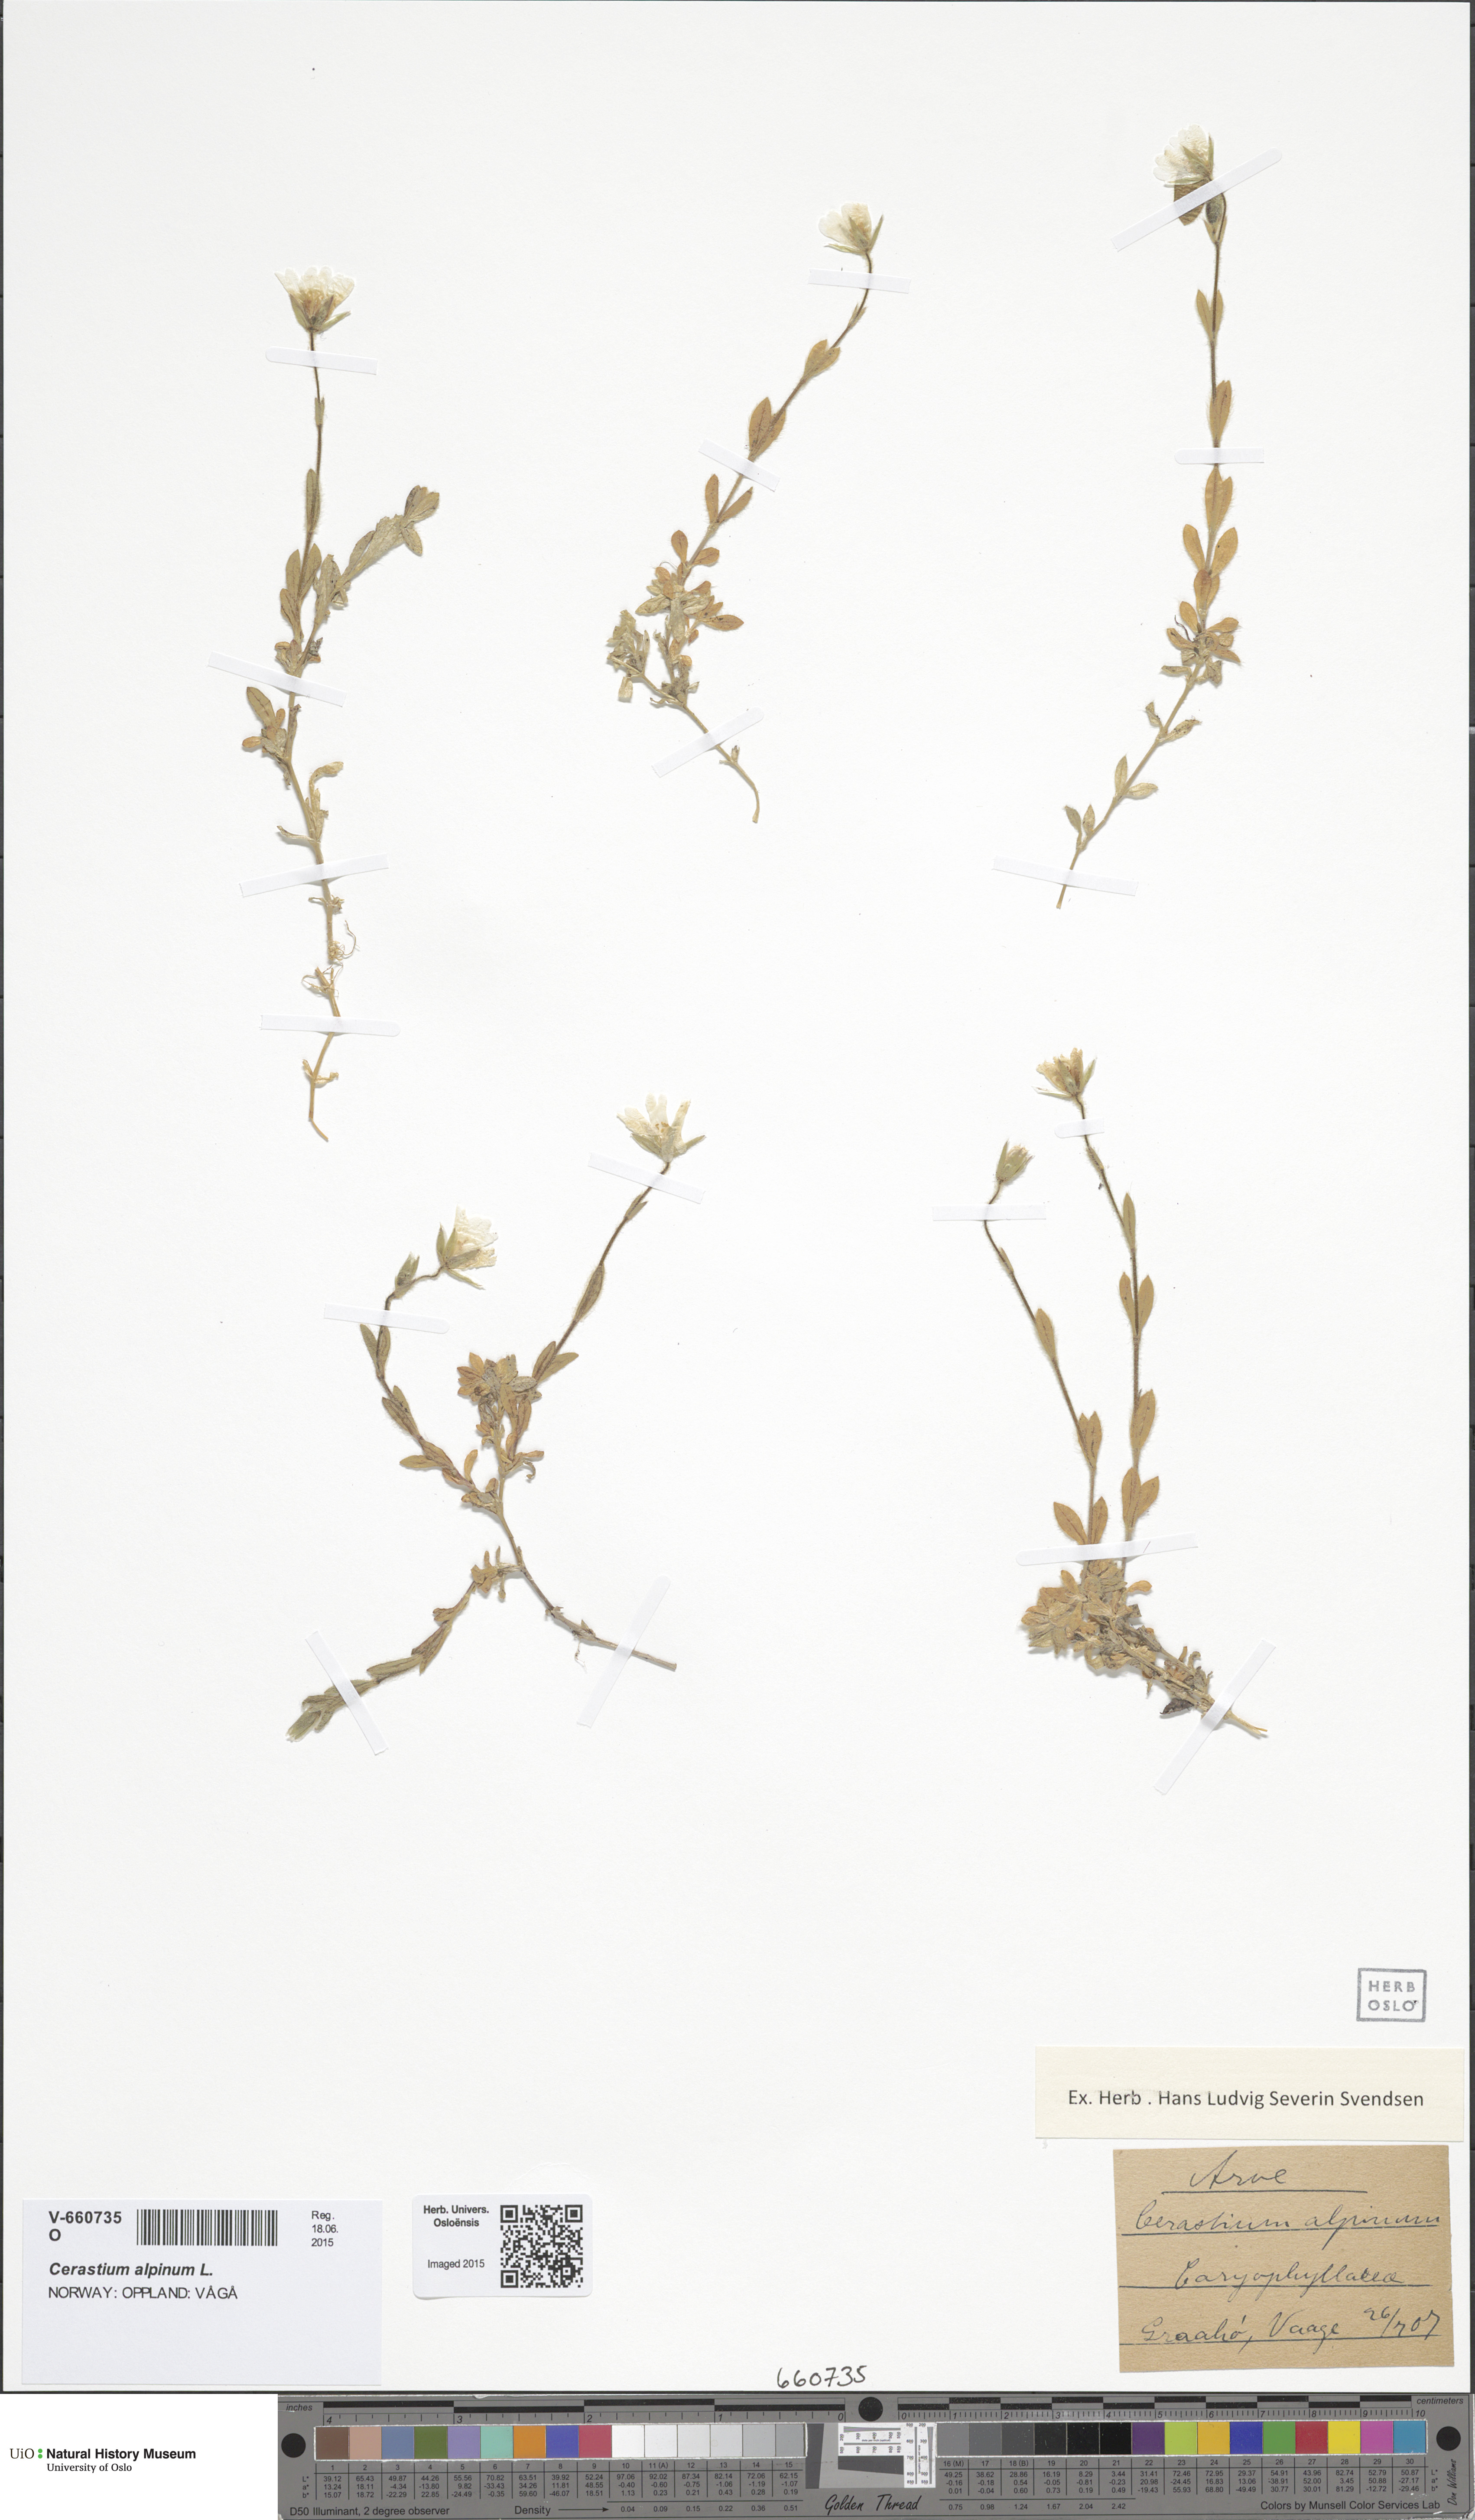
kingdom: Plantae
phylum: Tracheophyta
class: Magnoliopsida
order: Caryophyllales
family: Caryophyllaceae
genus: Cerastium
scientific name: Cerastium alpinum
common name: Alpine mouse-ear
